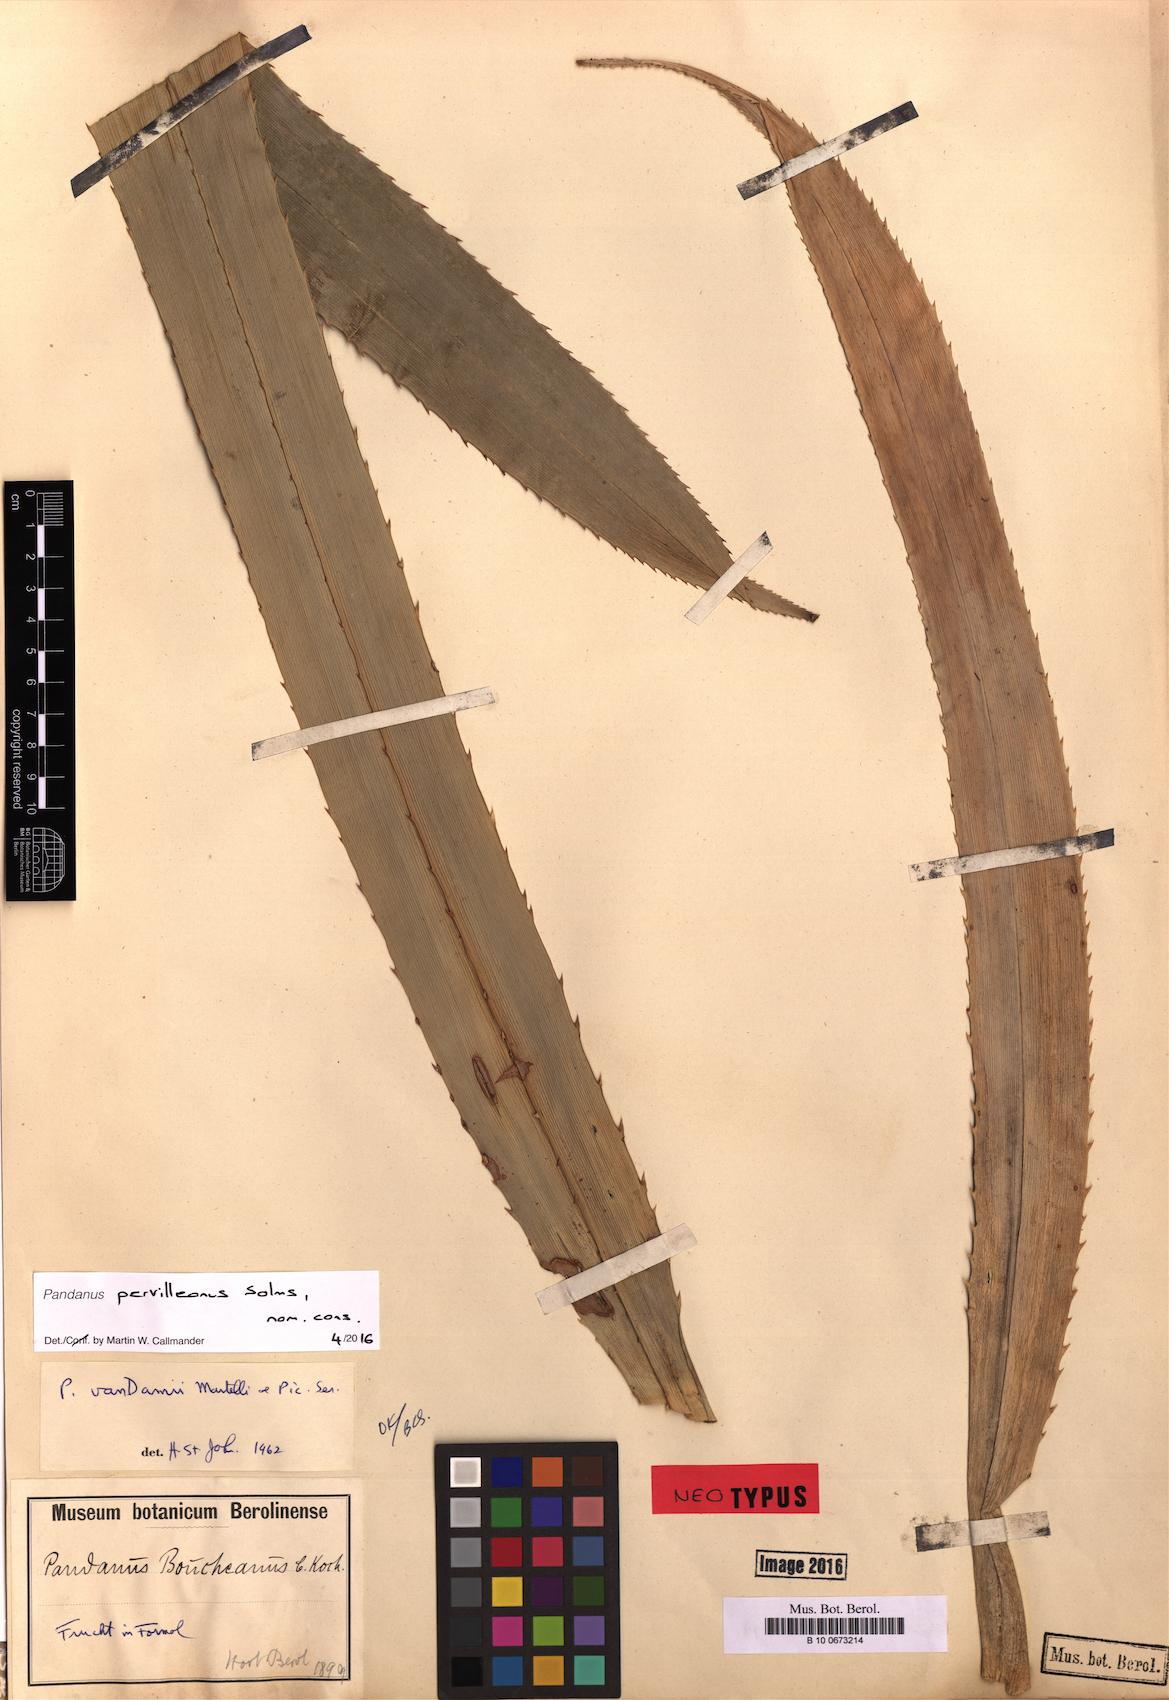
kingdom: Plantae
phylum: Tracheophyta
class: Liliopsida
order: Pandanales
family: Pandanaceae
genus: Pandanus
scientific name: Pandanus pervilleanus
